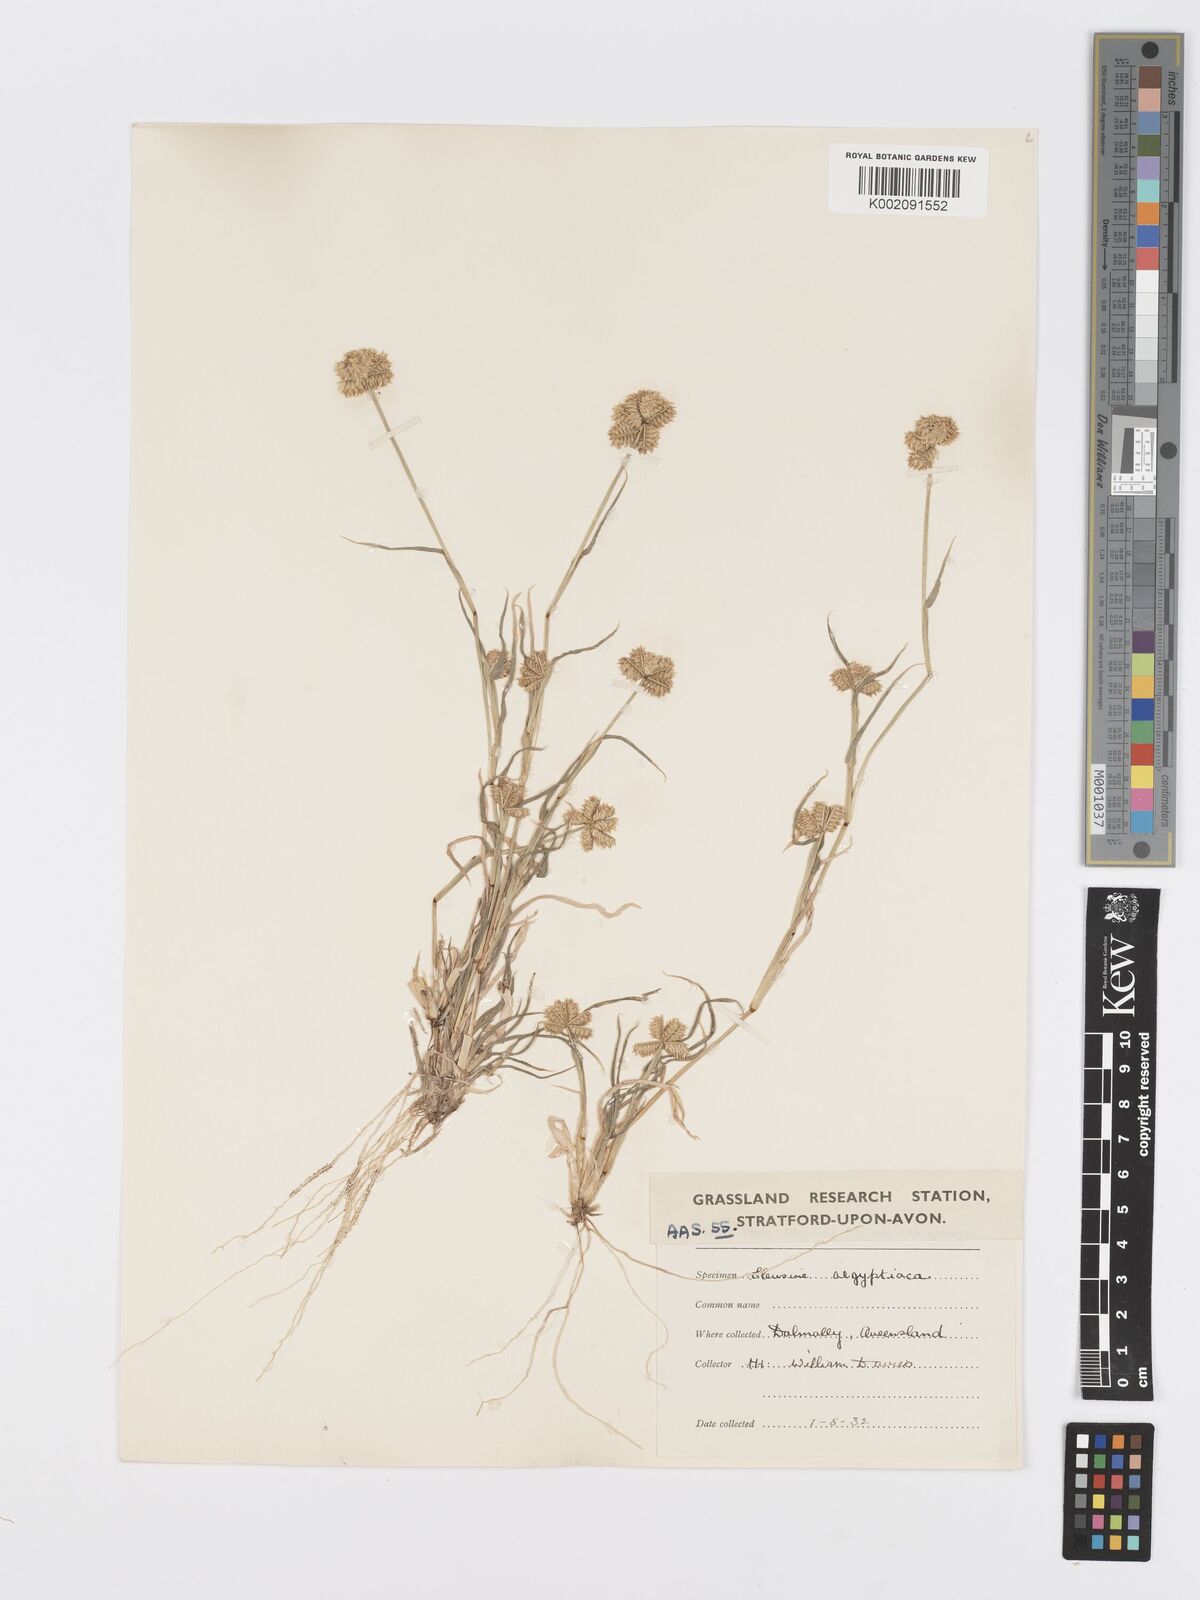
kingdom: Plantae
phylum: Tracheophyta
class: Liliopsida
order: Poales
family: Poaceae
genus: Dactyloctenium
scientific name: Dactyloctenium radulans
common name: Button-grass
